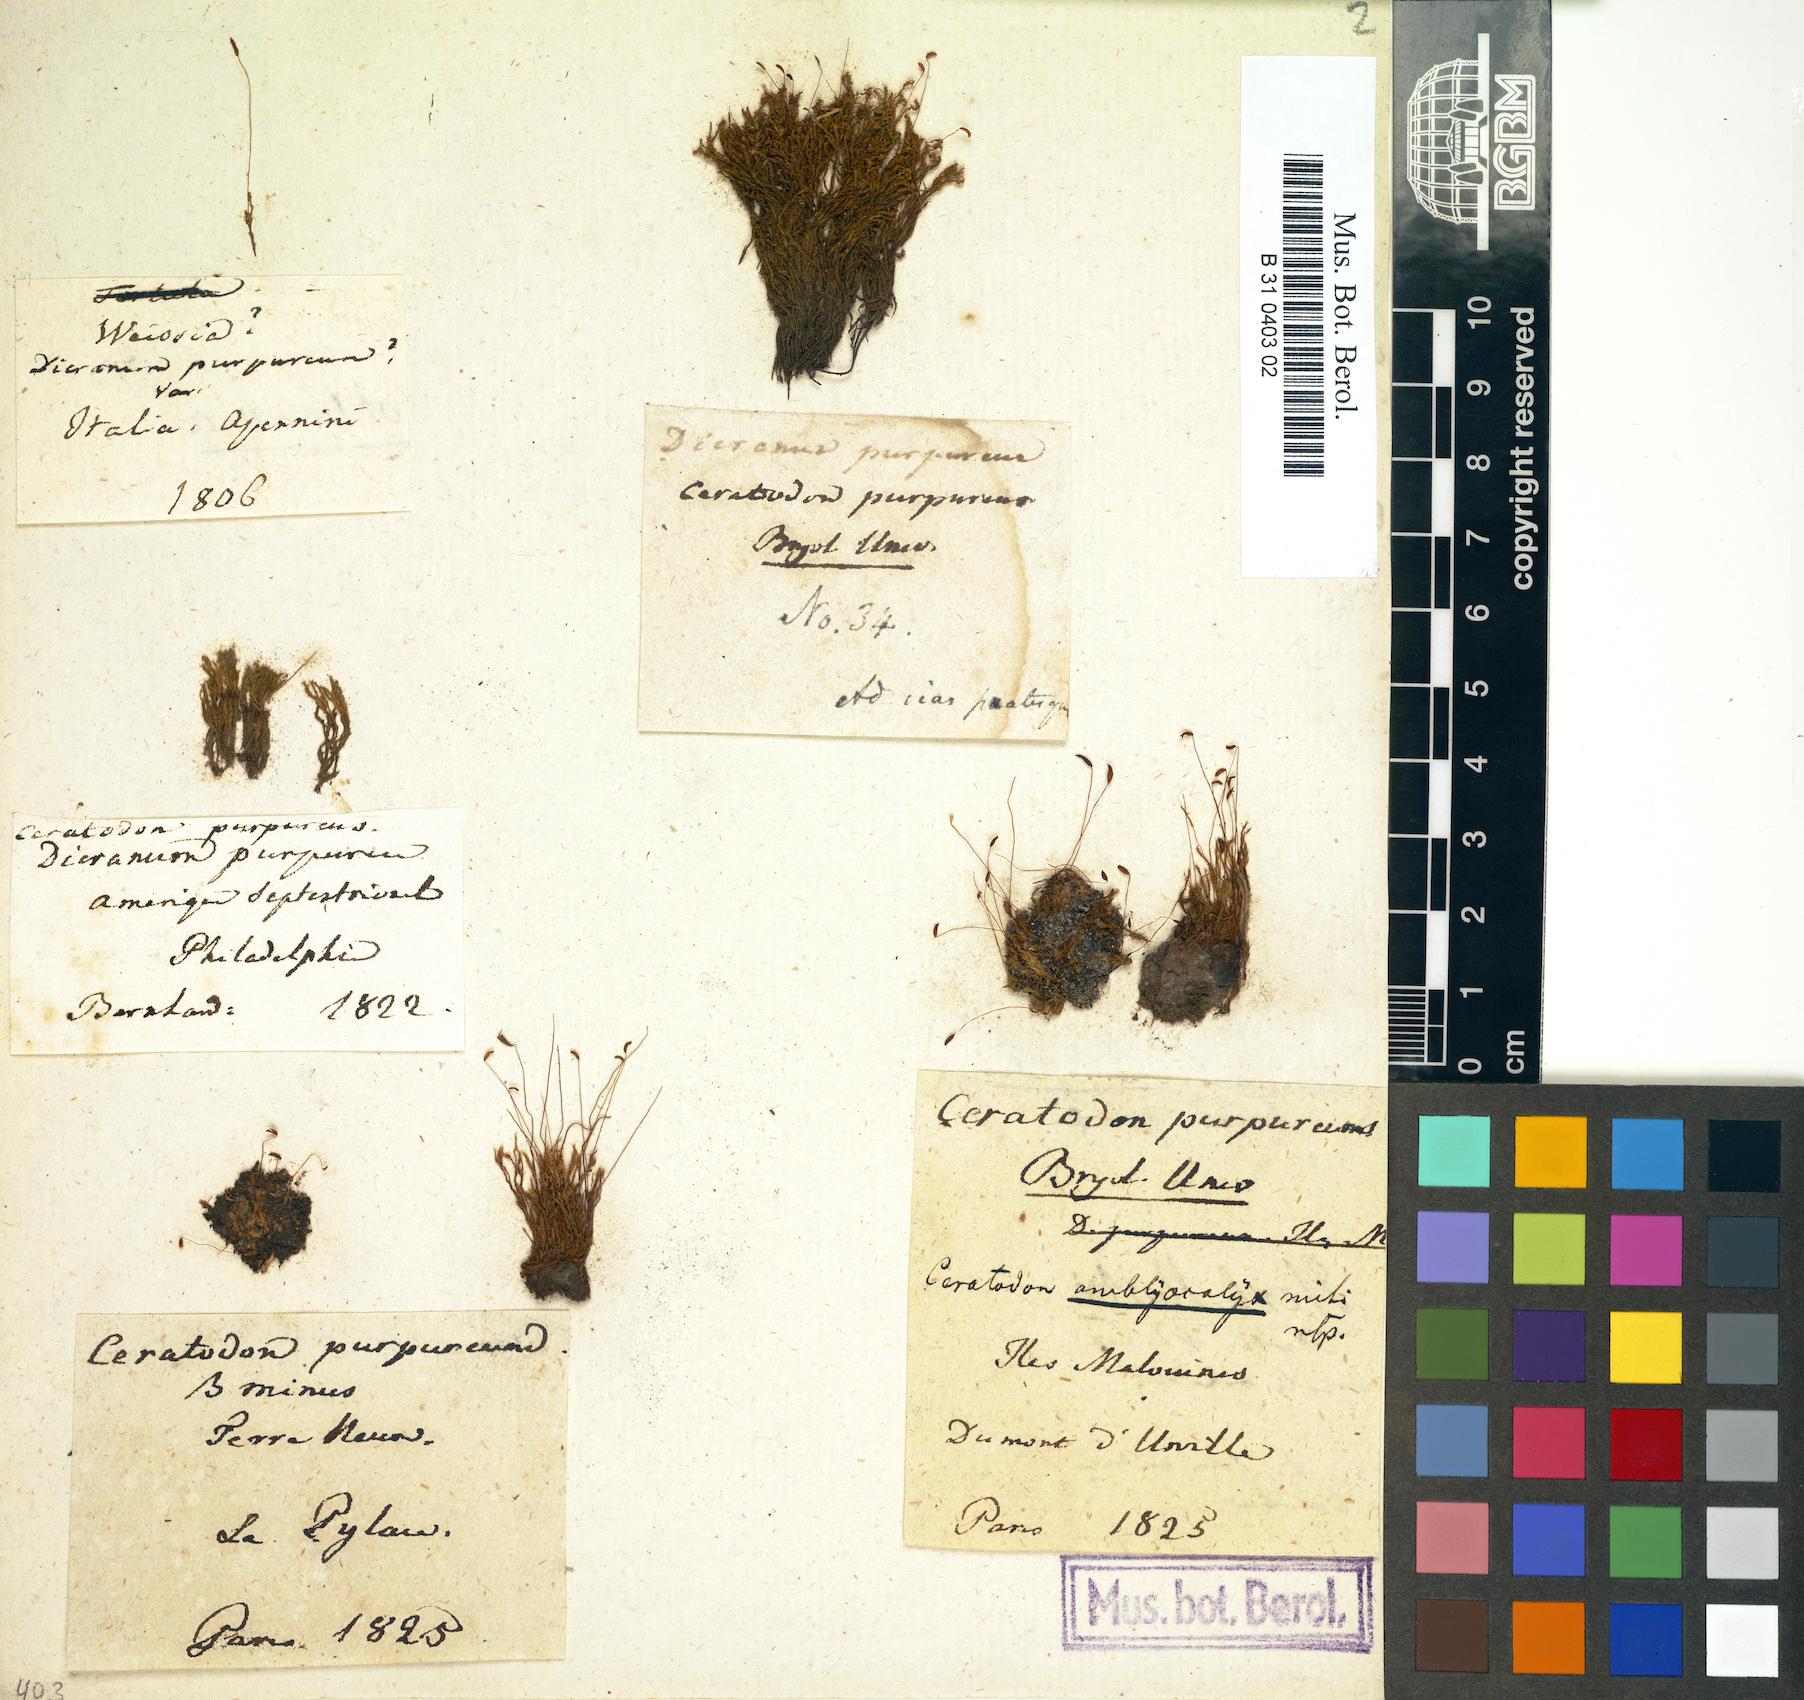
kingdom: Plantae
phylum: Bryophyta
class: Bryopsida
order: Dicranales
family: Ditrichaceae
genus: Ceratodon
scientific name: Ceratodon purpureus
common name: Redshank
